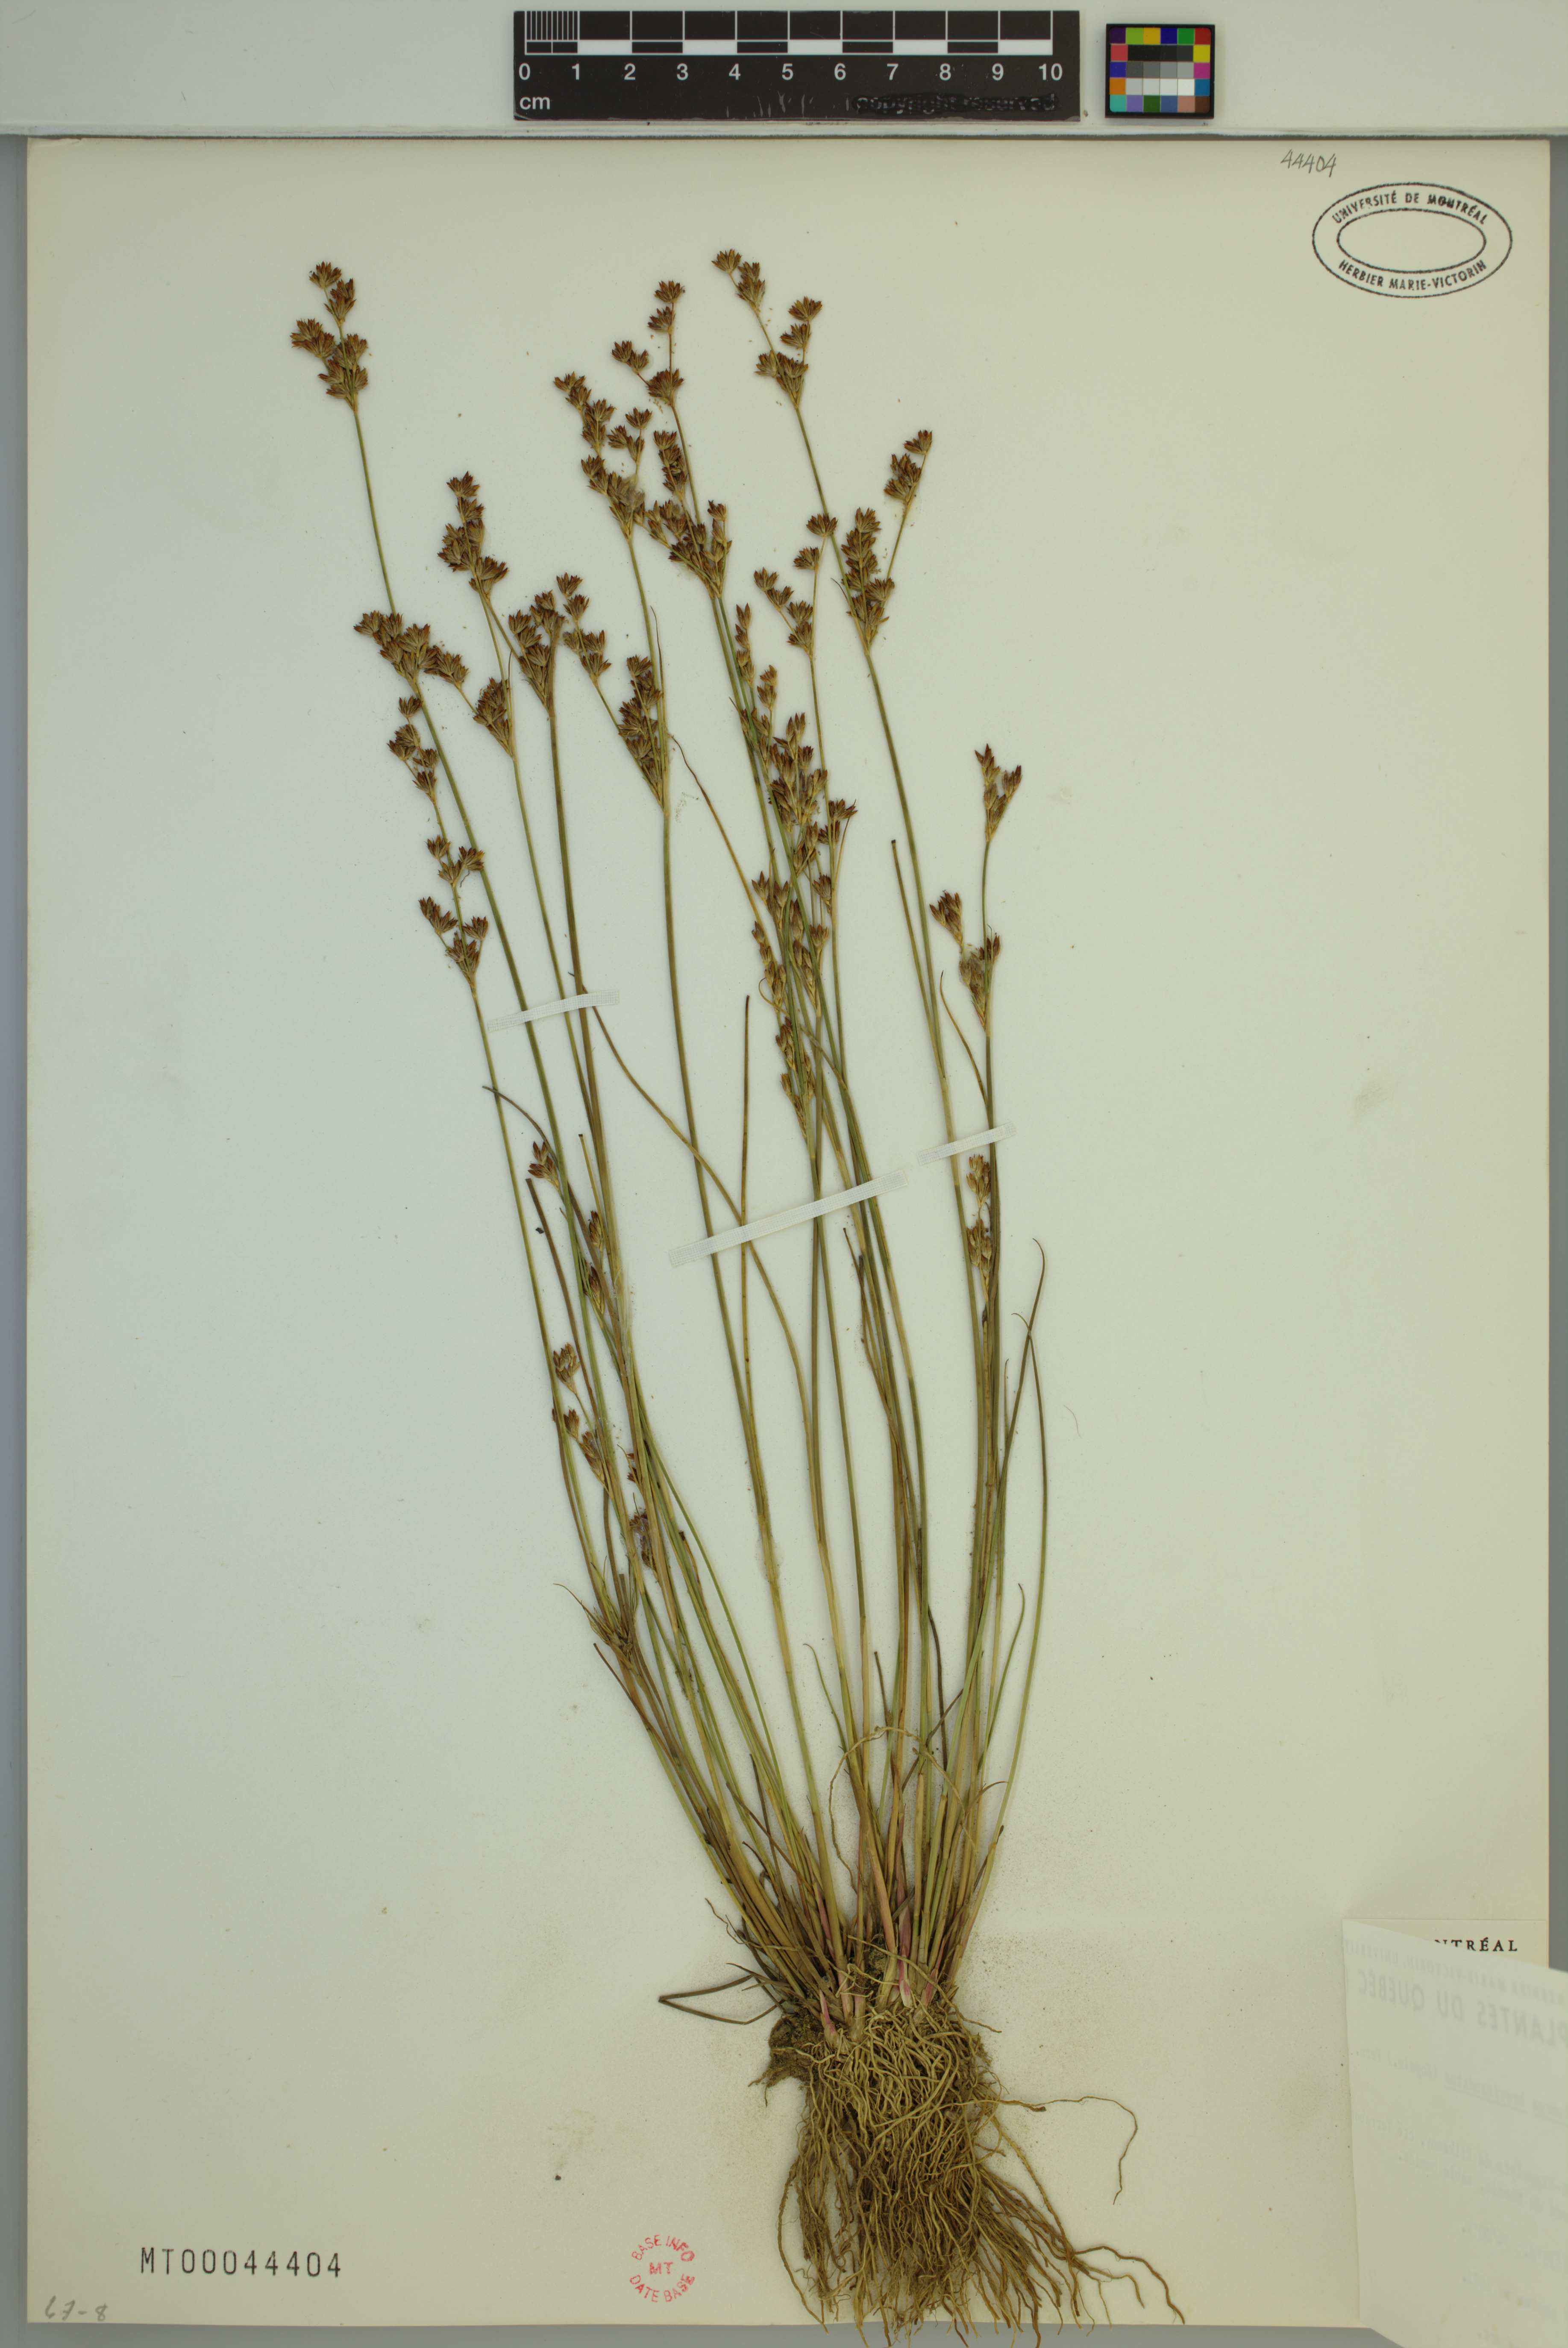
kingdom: Plantae
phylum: Tracheophyta
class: Liliopsida
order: Poales
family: Juncaceae
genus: Juncus
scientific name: Juncus brevicaudatus
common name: Narrow-panicle rush
